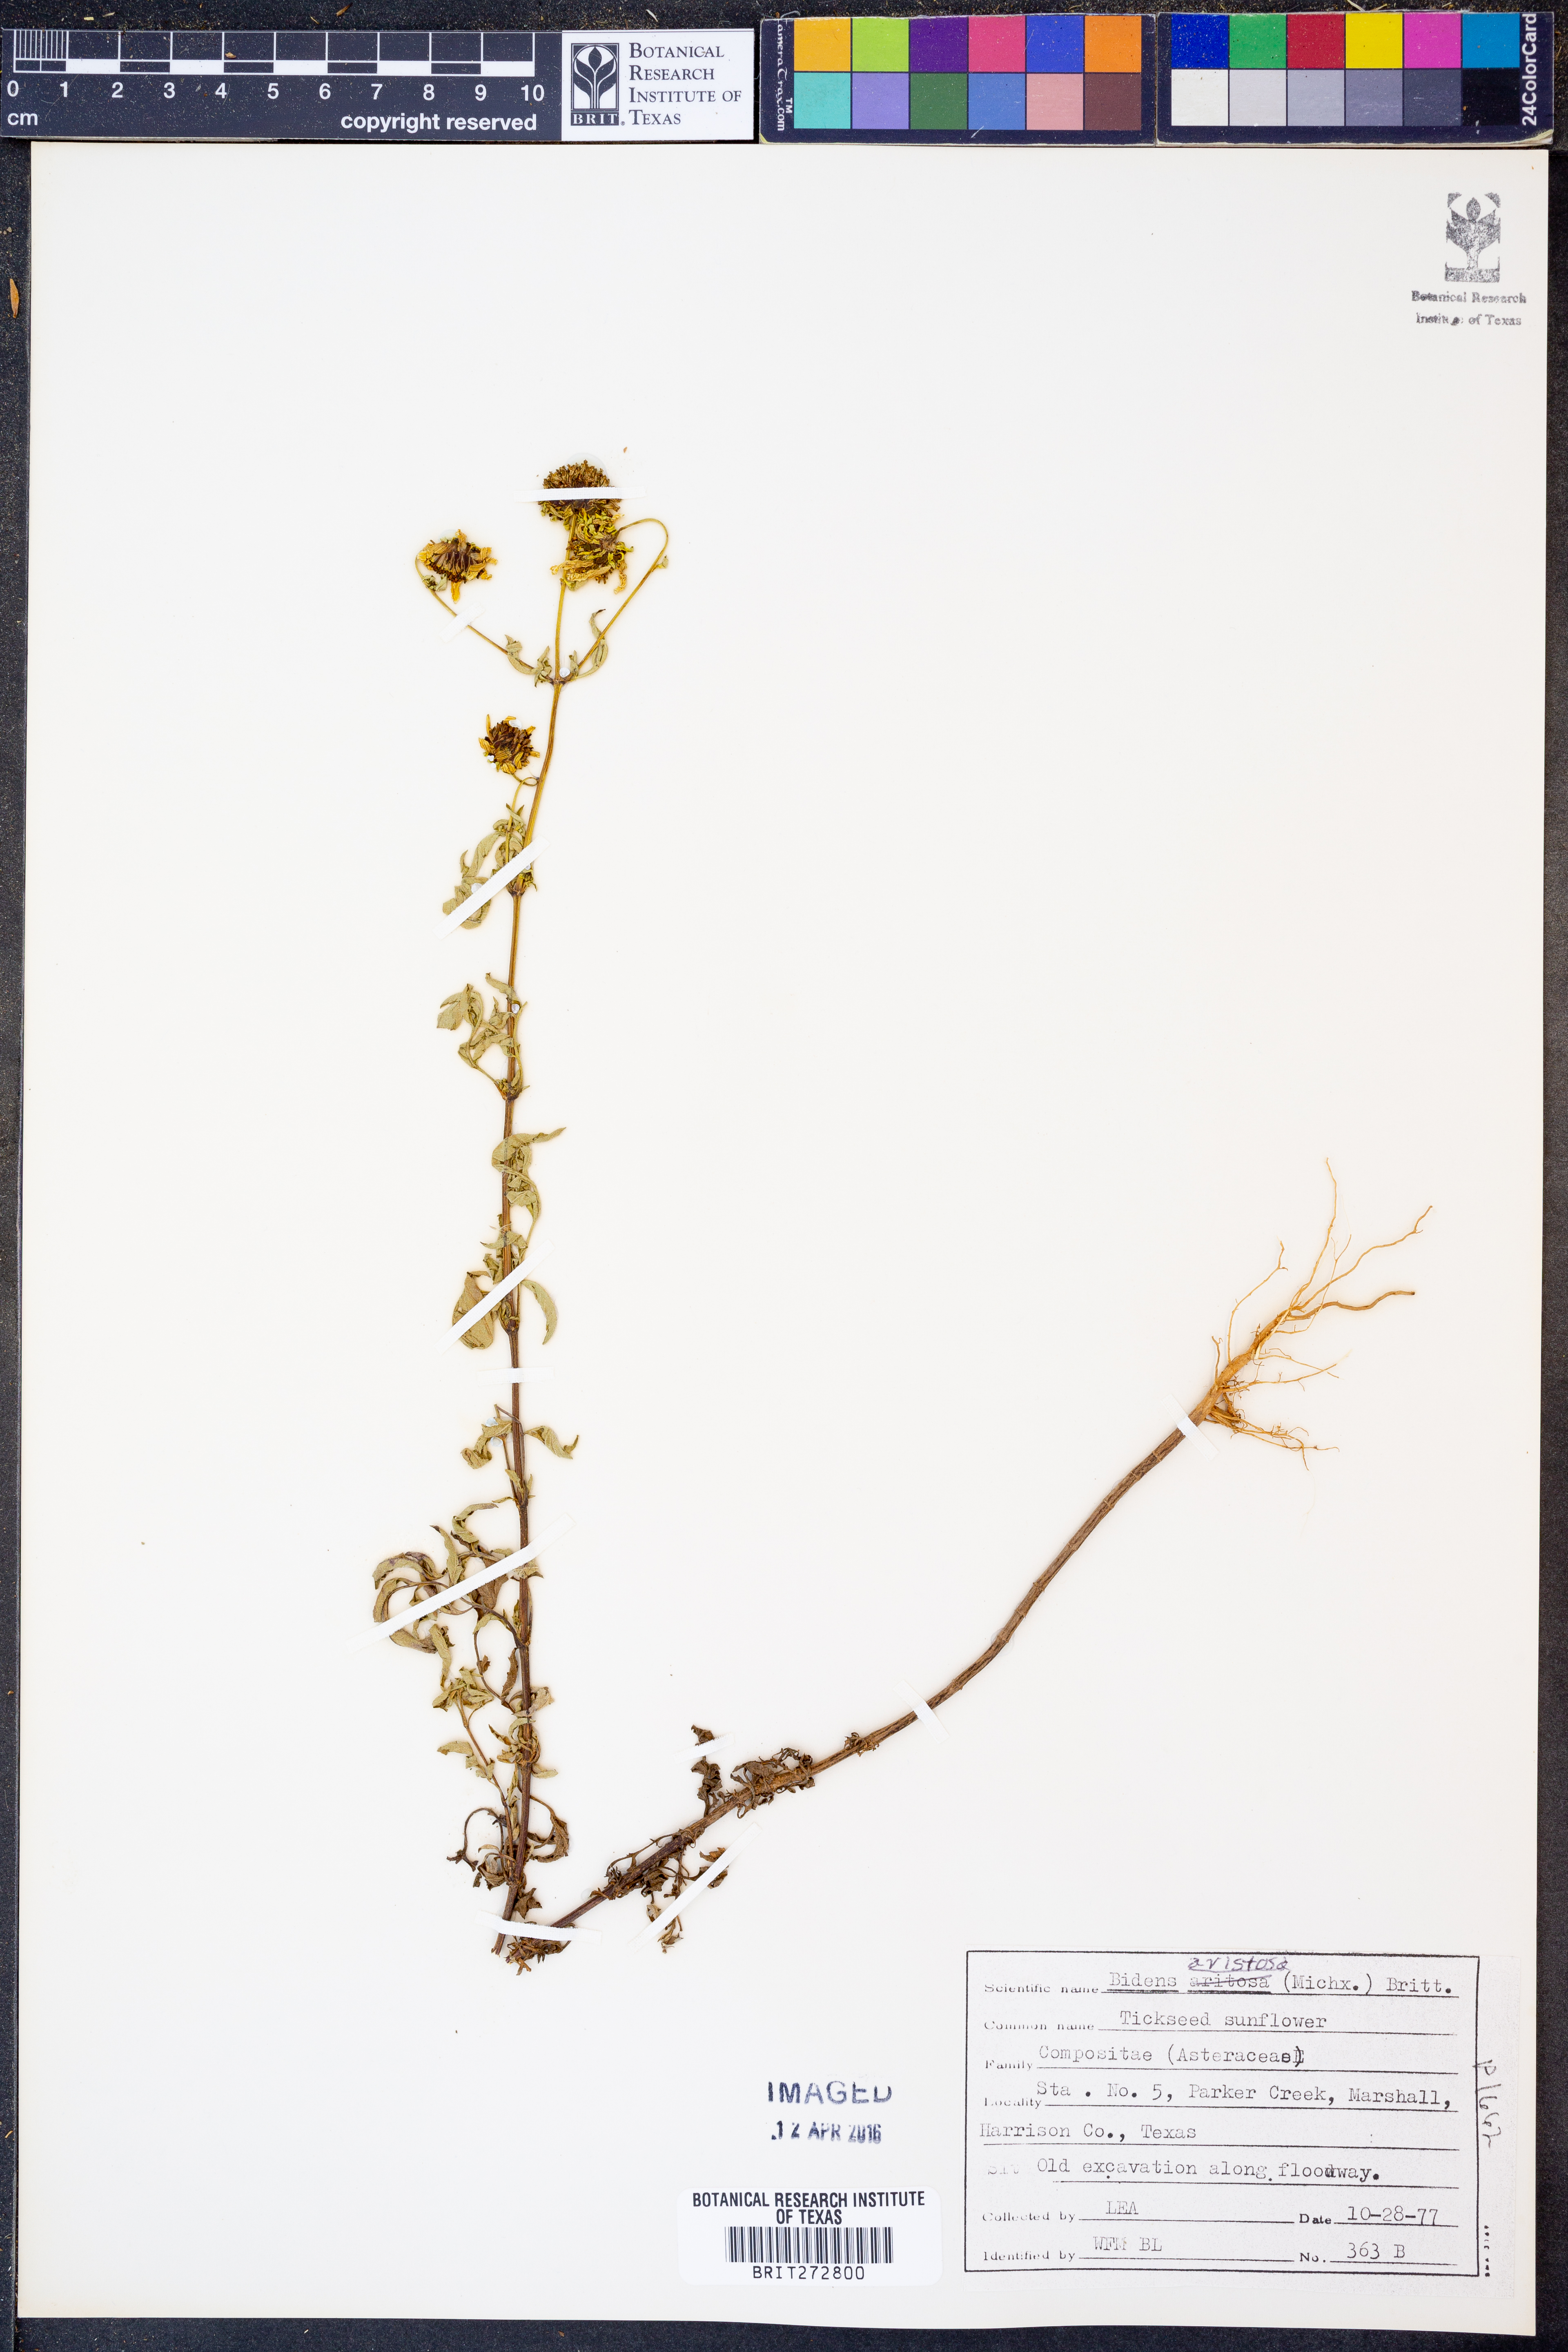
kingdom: Plantae
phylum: Tracheophyta
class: Magnoliopsida
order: Asterales
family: Asteraceae
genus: Bidens
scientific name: Bidens aristosa
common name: Western tickseed
